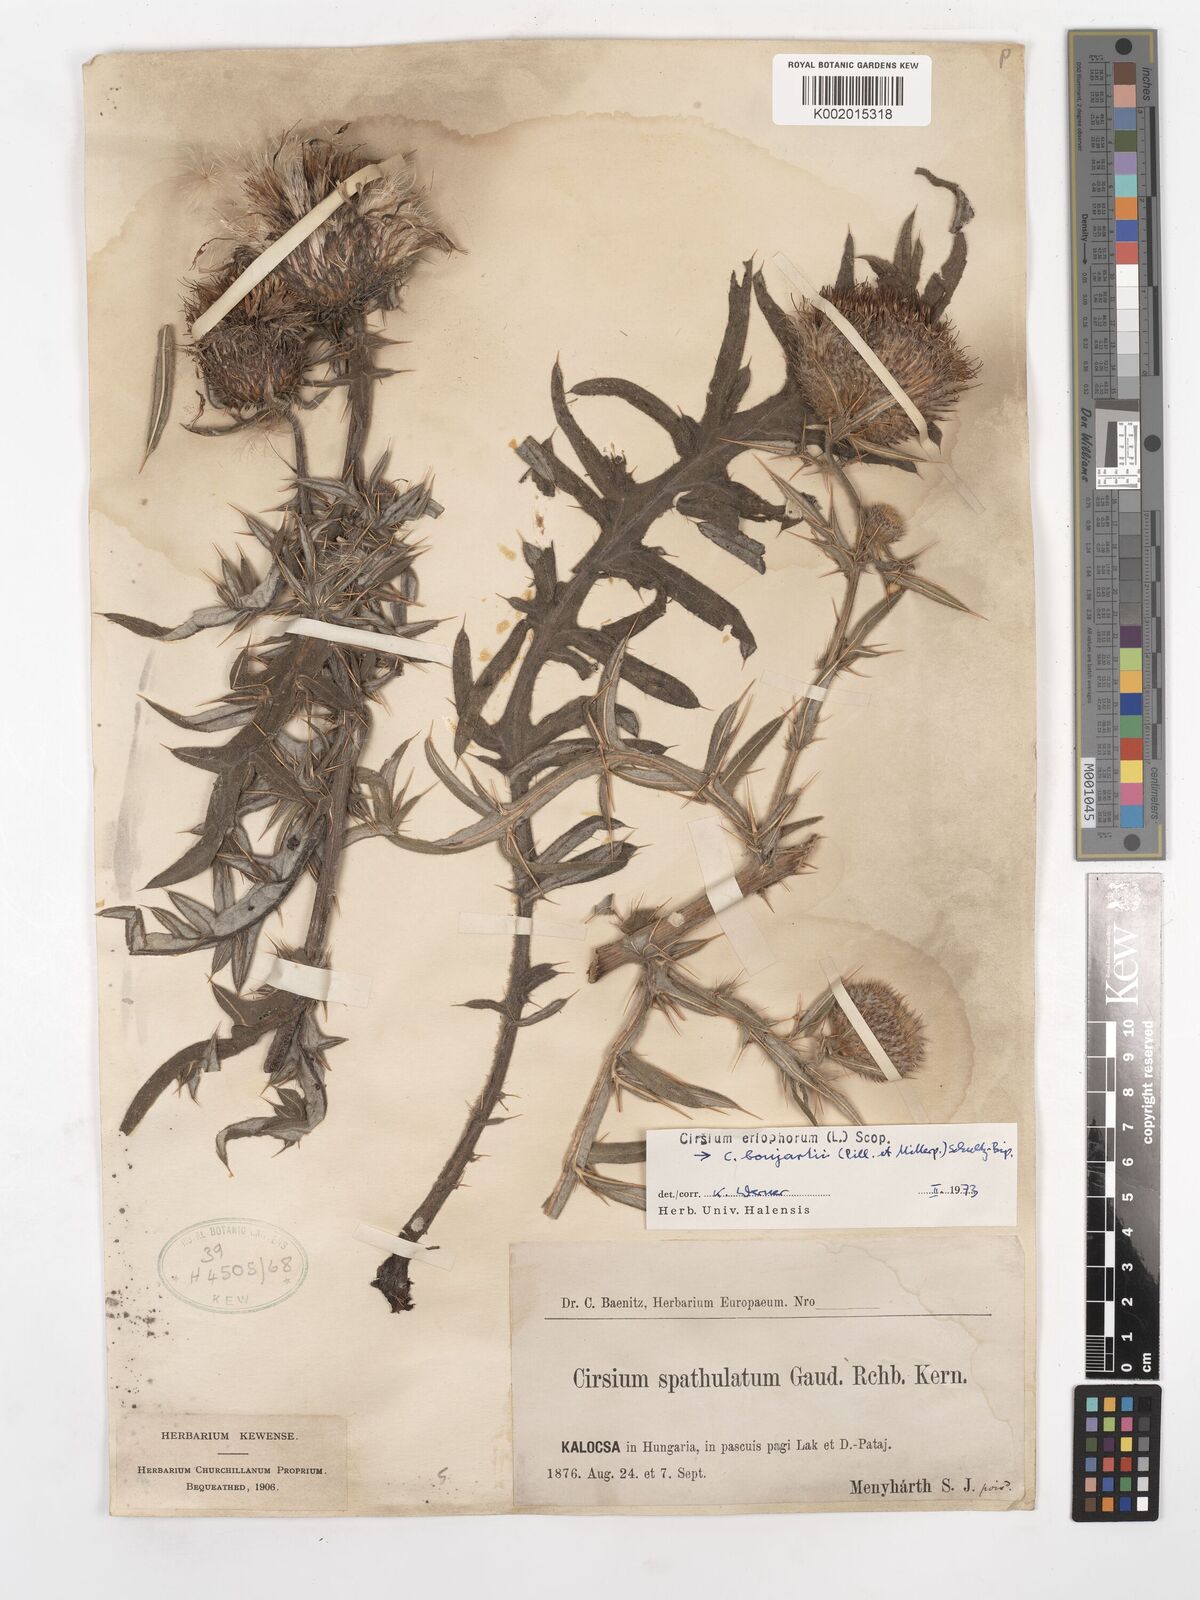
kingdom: Plantae
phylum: Tracheophyta
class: Magnoliopsida
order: Asterales
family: Asteraceae
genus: Lophiolepis
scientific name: Lophiolepis eriophora
